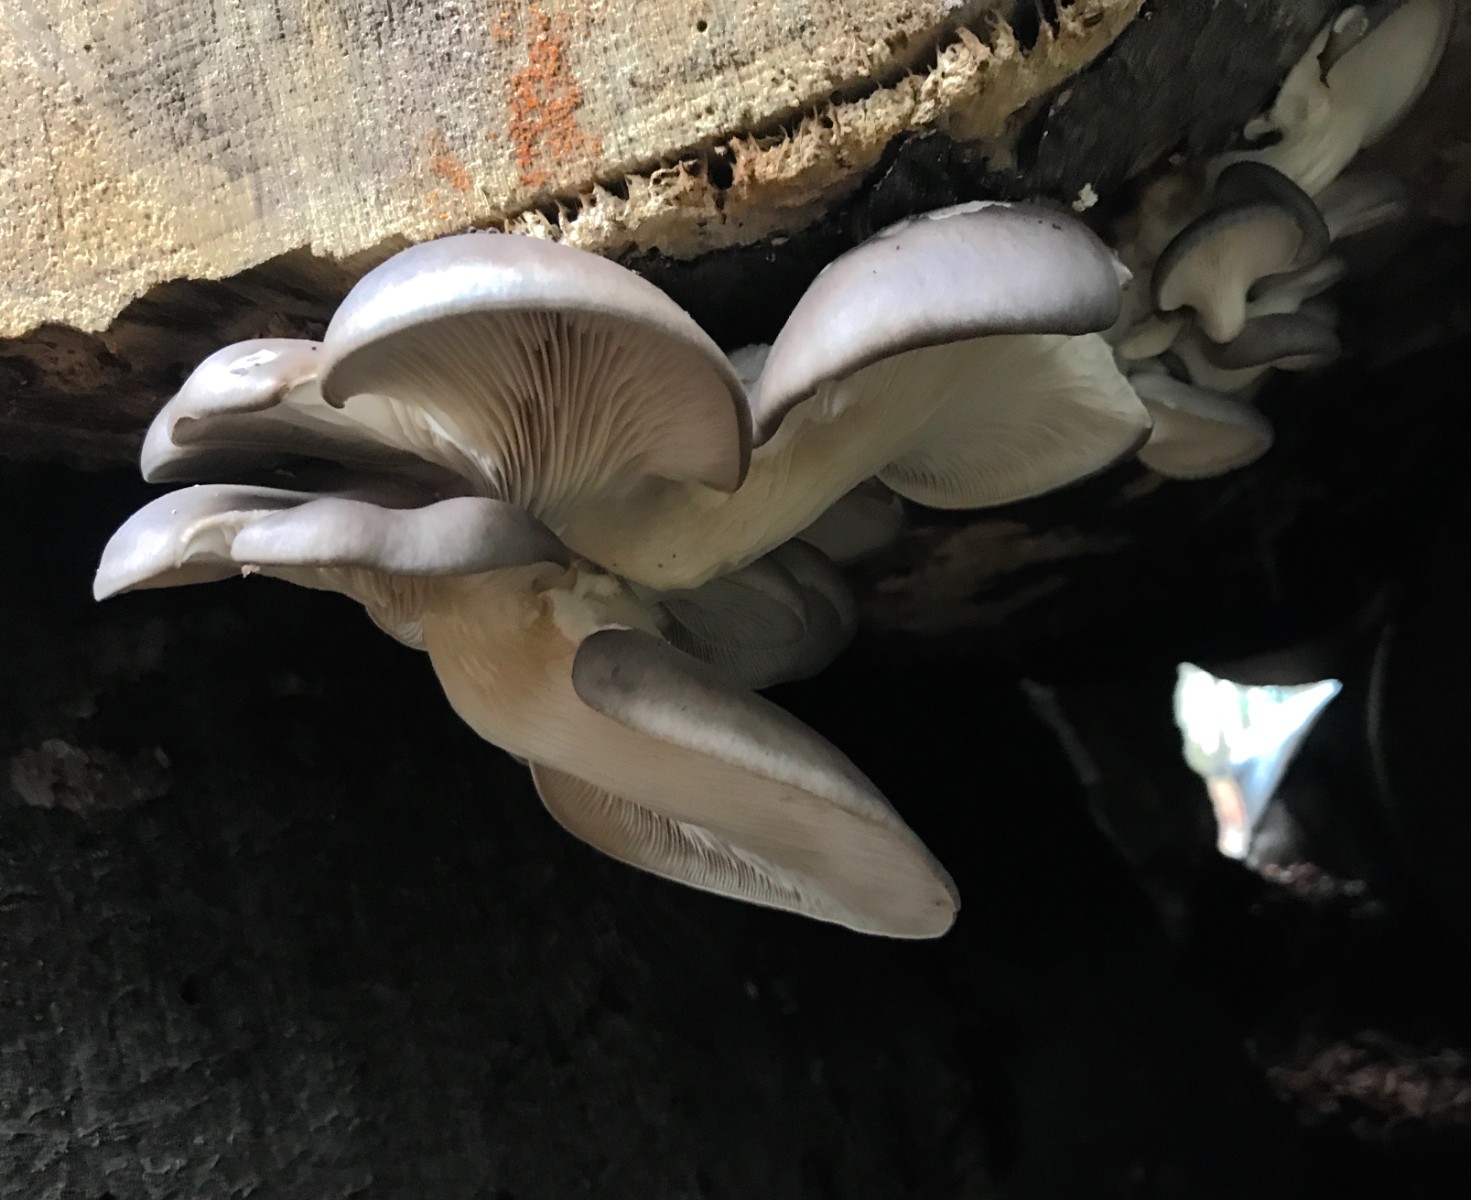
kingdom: Fungi
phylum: Basidiomycota
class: Agaricomycetes
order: Agaricales
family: Pleurotaceae
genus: Pleurotus
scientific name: Pleurotus ostreatus
